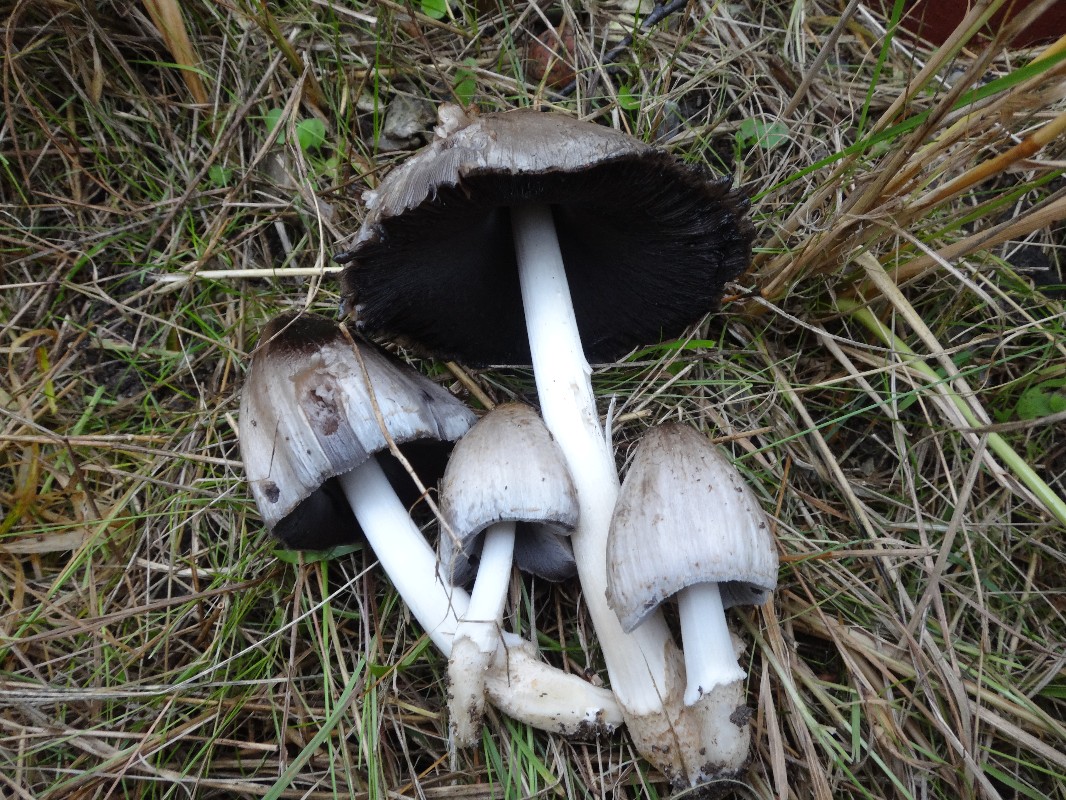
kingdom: Fungi
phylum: Basidiomycota
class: Agaricomycetes
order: Agaricales
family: Psathyrellaceae
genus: Coprinopsis
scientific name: Coprinopsis atramentaria
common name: almindelig blækhat
